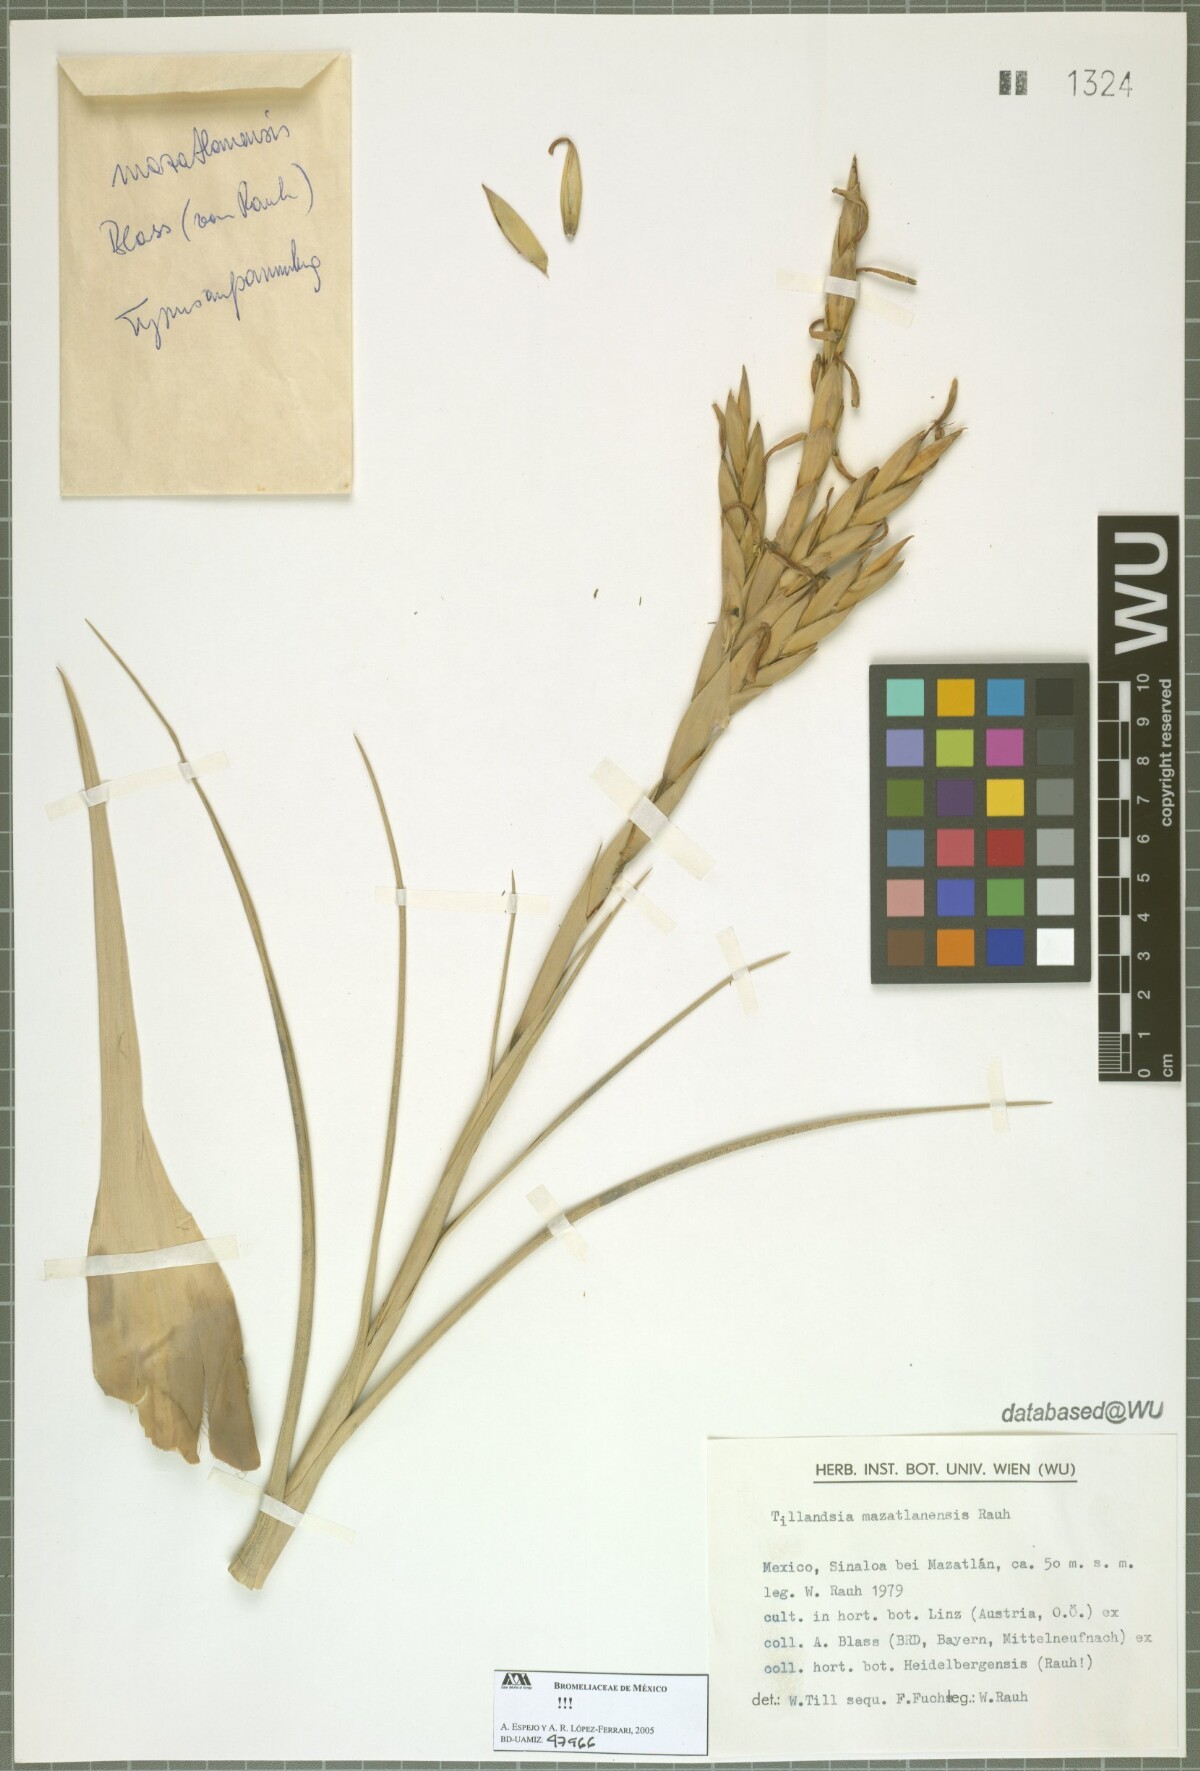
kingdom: Plantae
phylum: Tracheophyta
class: Liliopsida
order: Poales
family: Bromeliaceae
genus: Tillandsia
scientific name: Tillandsia mazatlanensis
